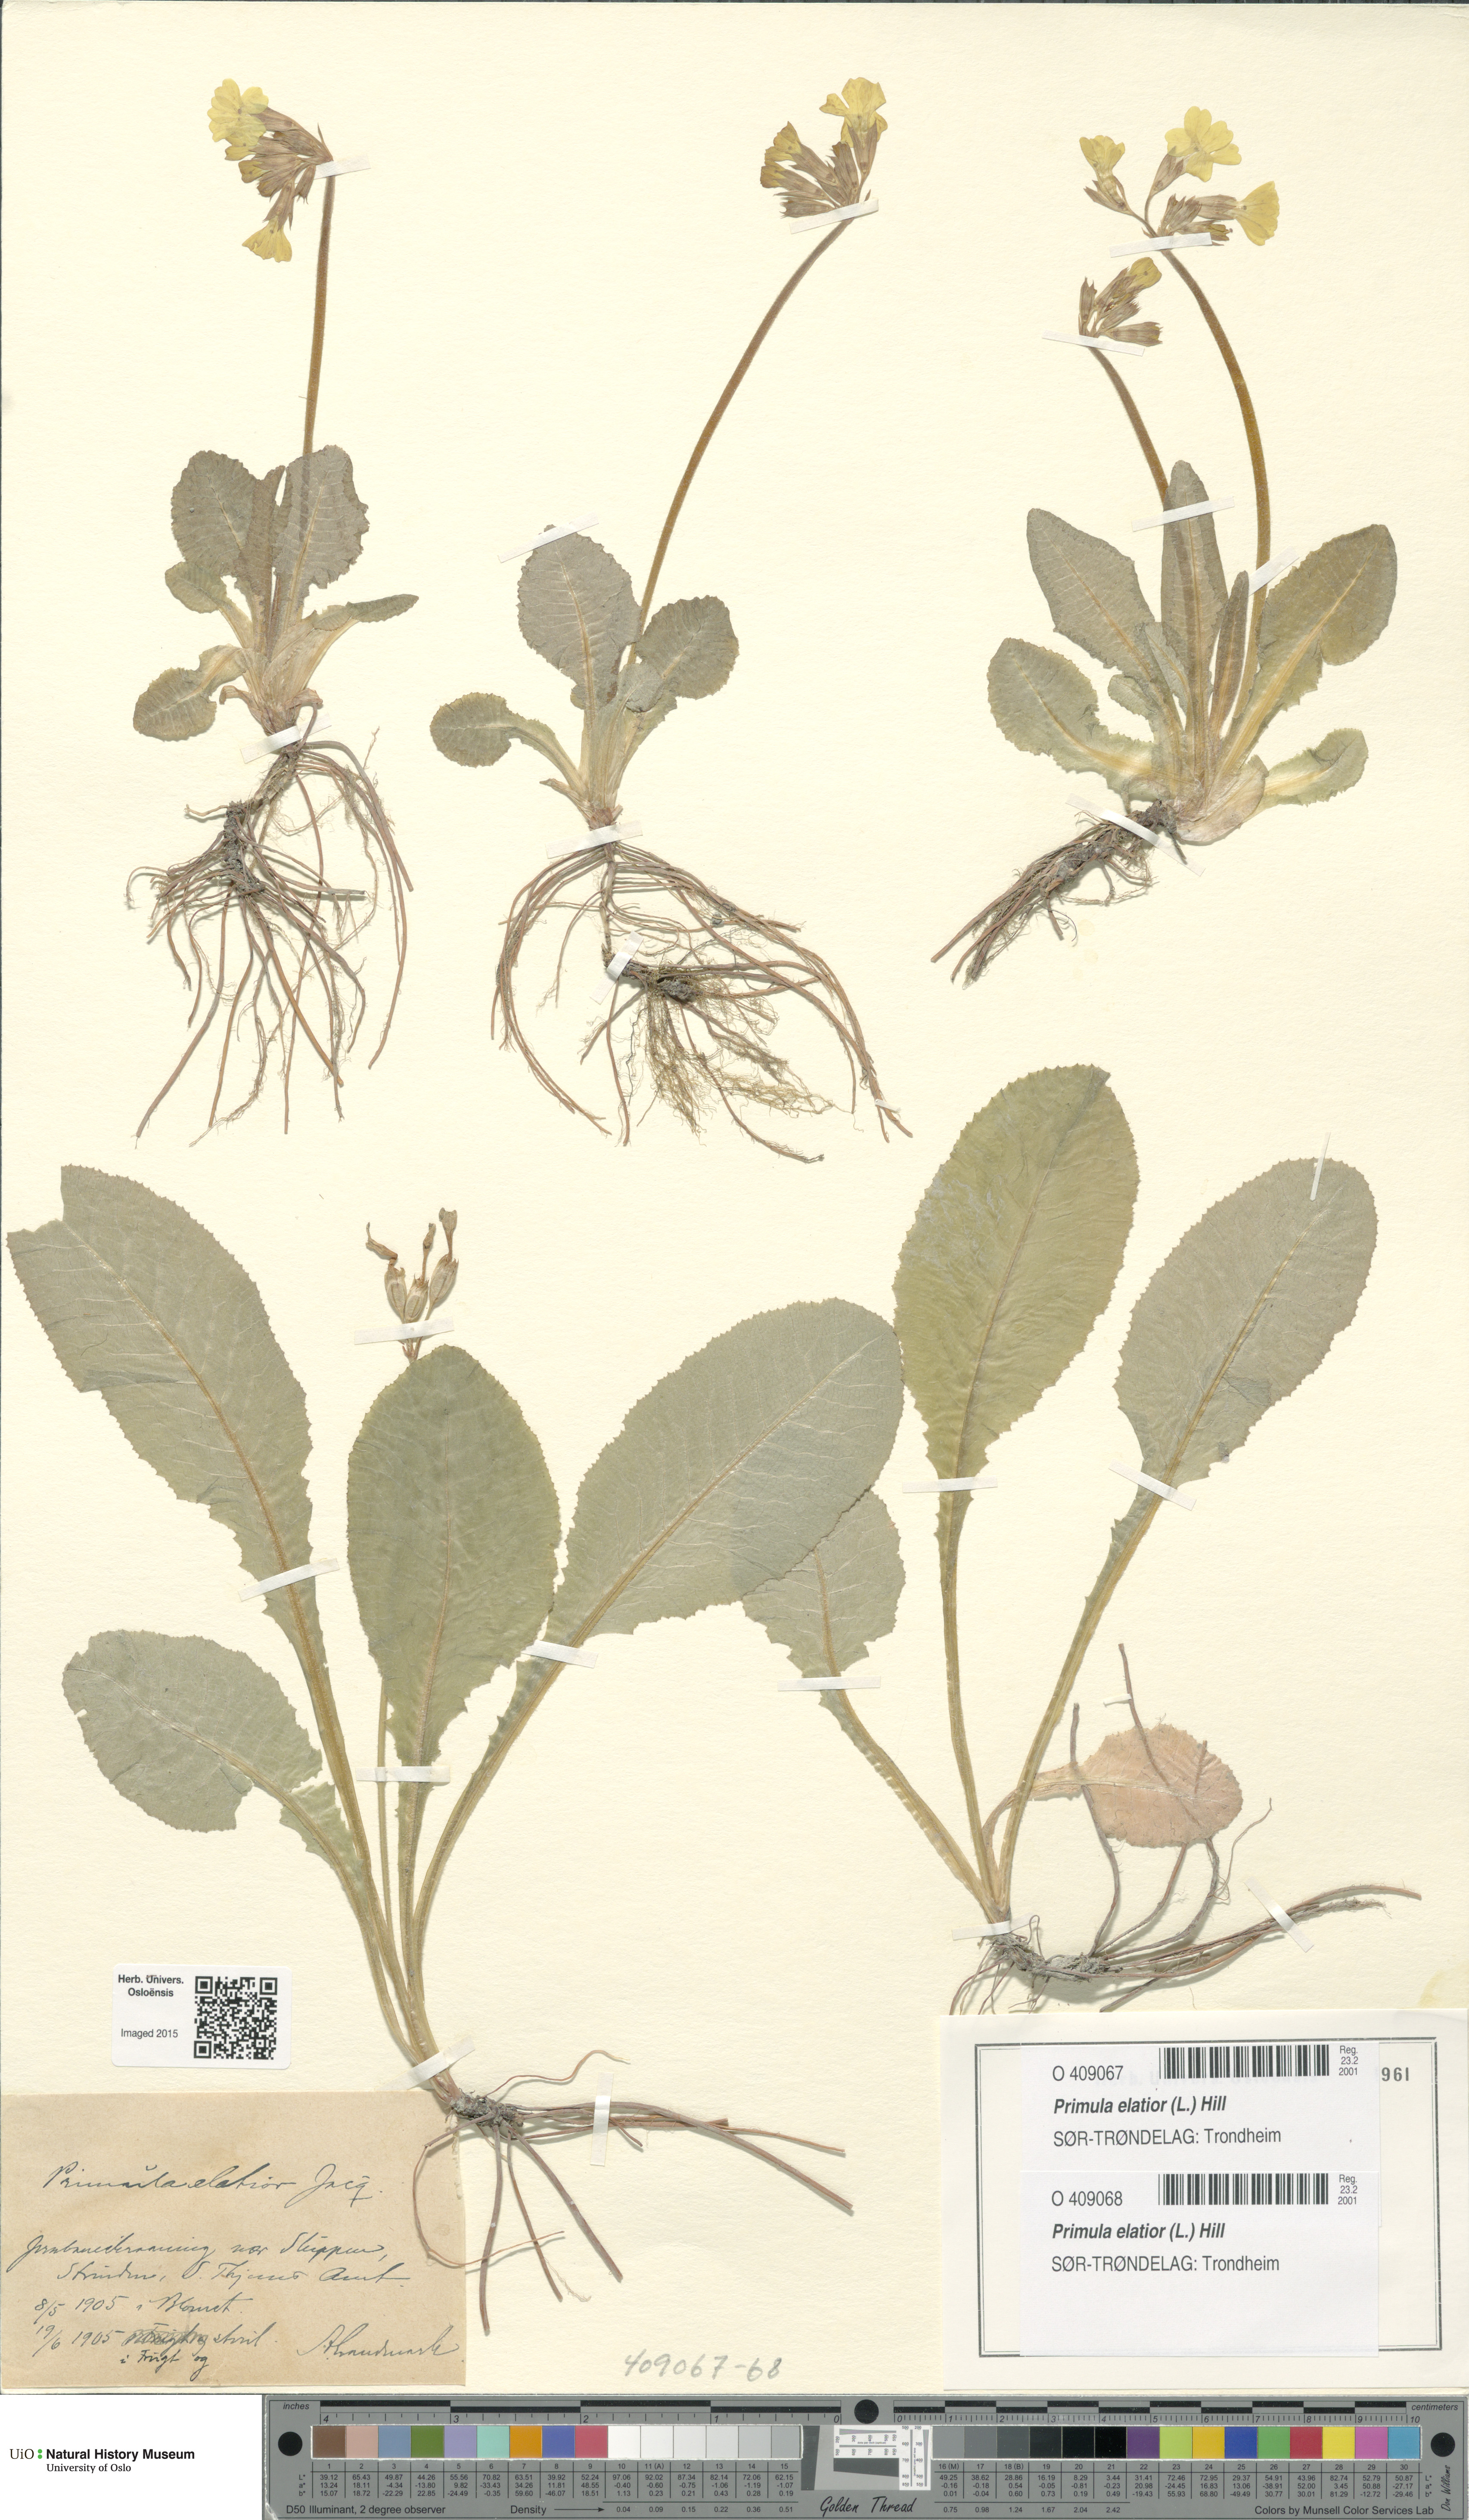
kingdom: Plantae
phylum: Tracheophyta
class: Magnoliopsida
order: Ericales
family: Primulaceae
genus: Primula
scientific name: Primula elatior
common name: Oxlip
